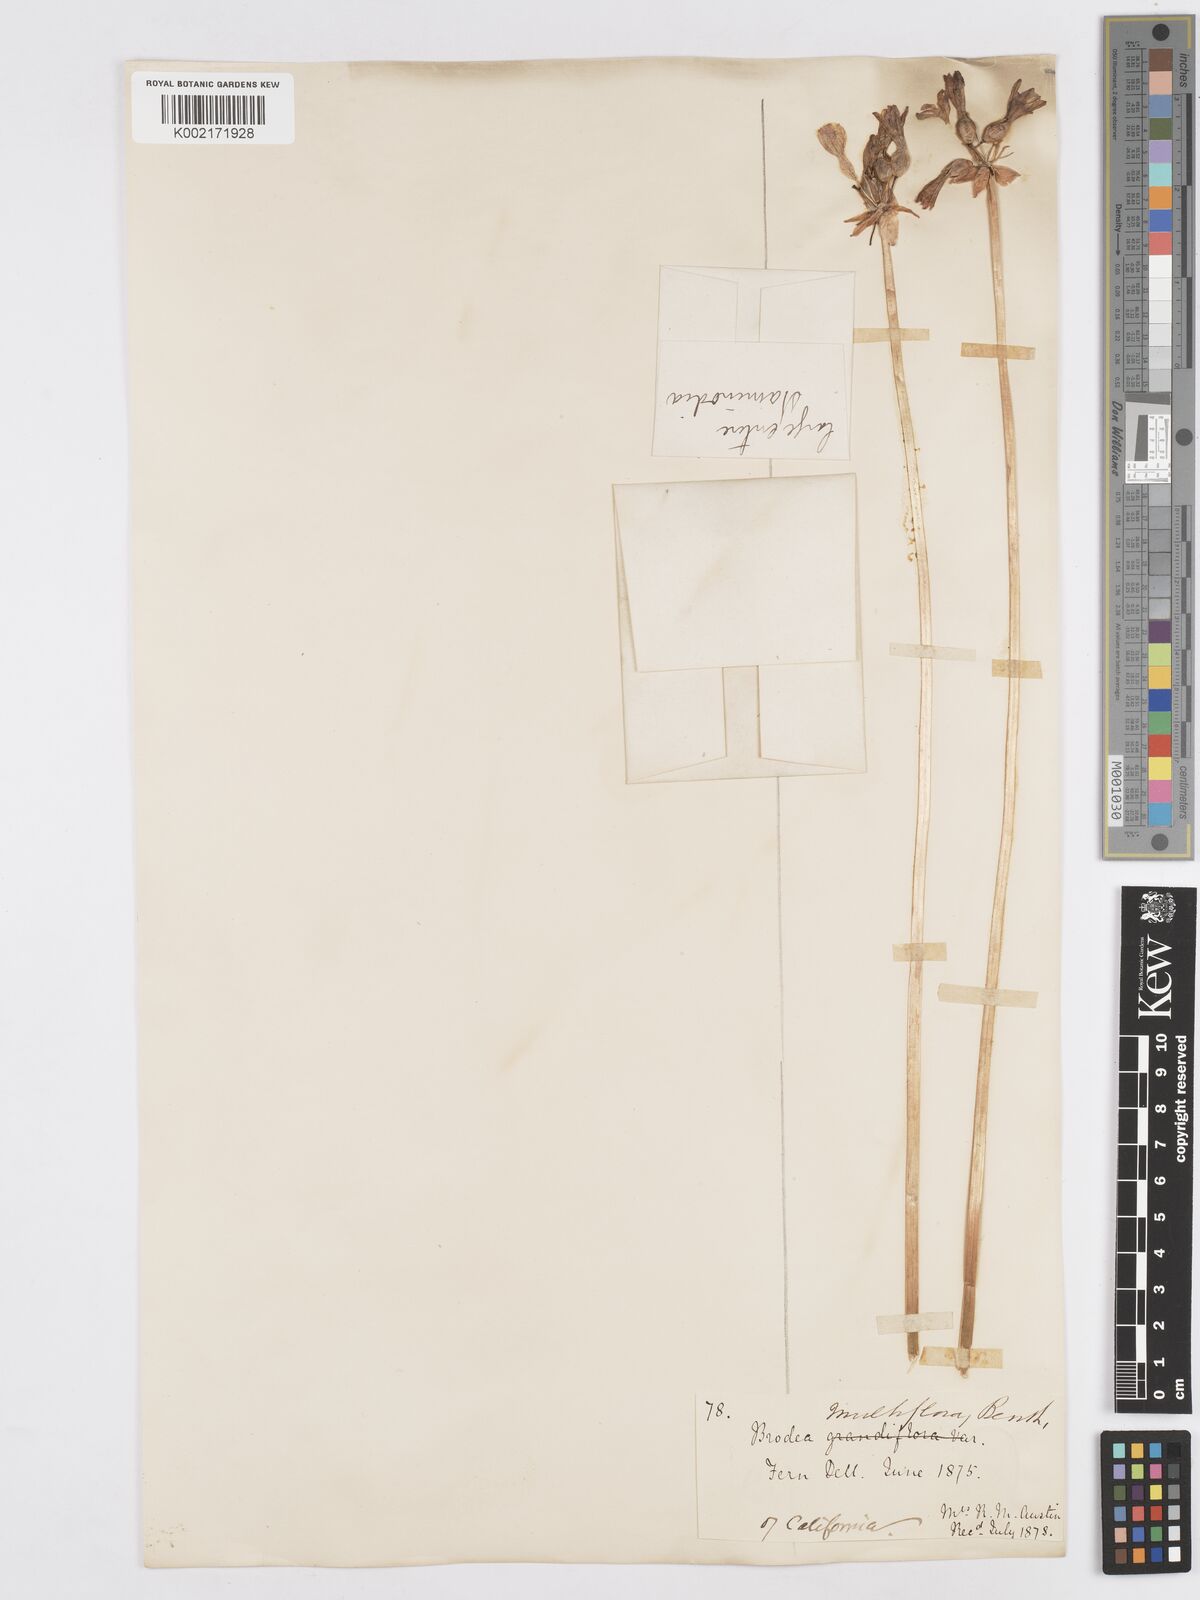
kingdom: Plantae
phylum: Tracheophyta
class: Liliopsida
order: Asparagales
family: Asparagaceae
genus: Dichelostemma
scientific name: Dichelostemma multiflorum
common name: Round-tooth ookow
